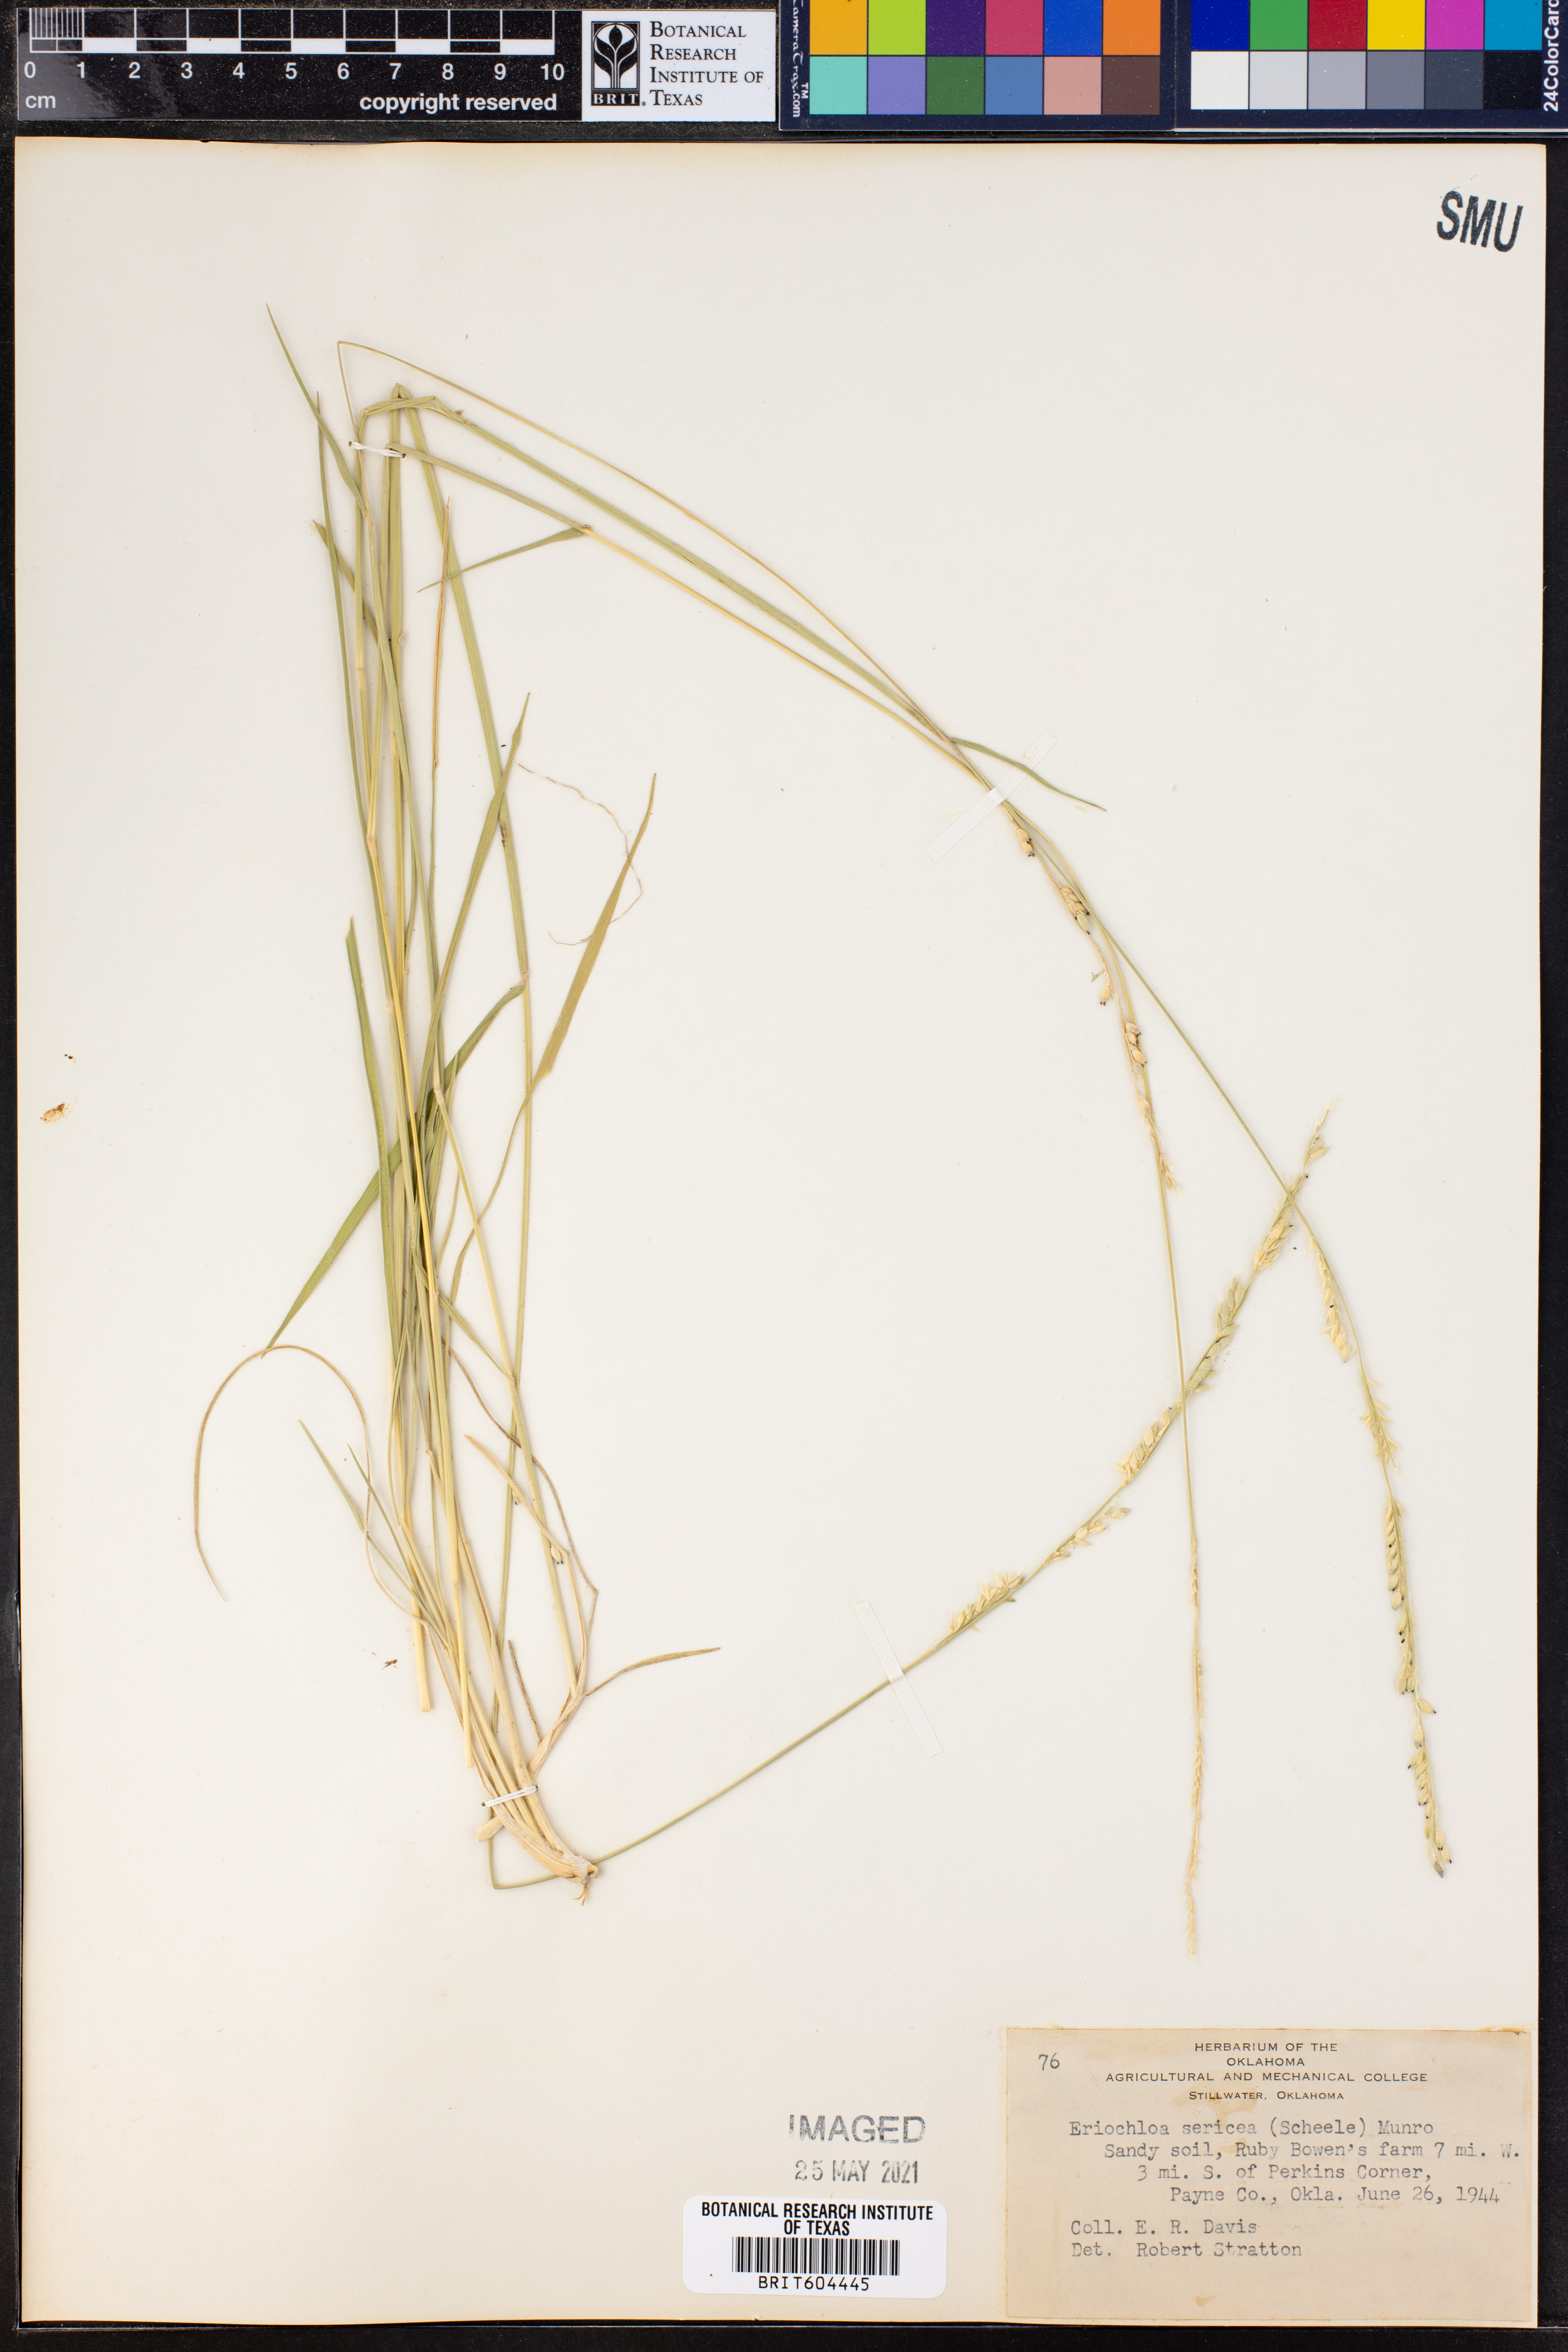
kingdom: Plantae
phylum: Tracheophyta
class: Liliopsida
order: Poales
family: Poaceae
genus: Eriochloa
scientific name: Eriochloa sericea
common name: Texas cup grass
